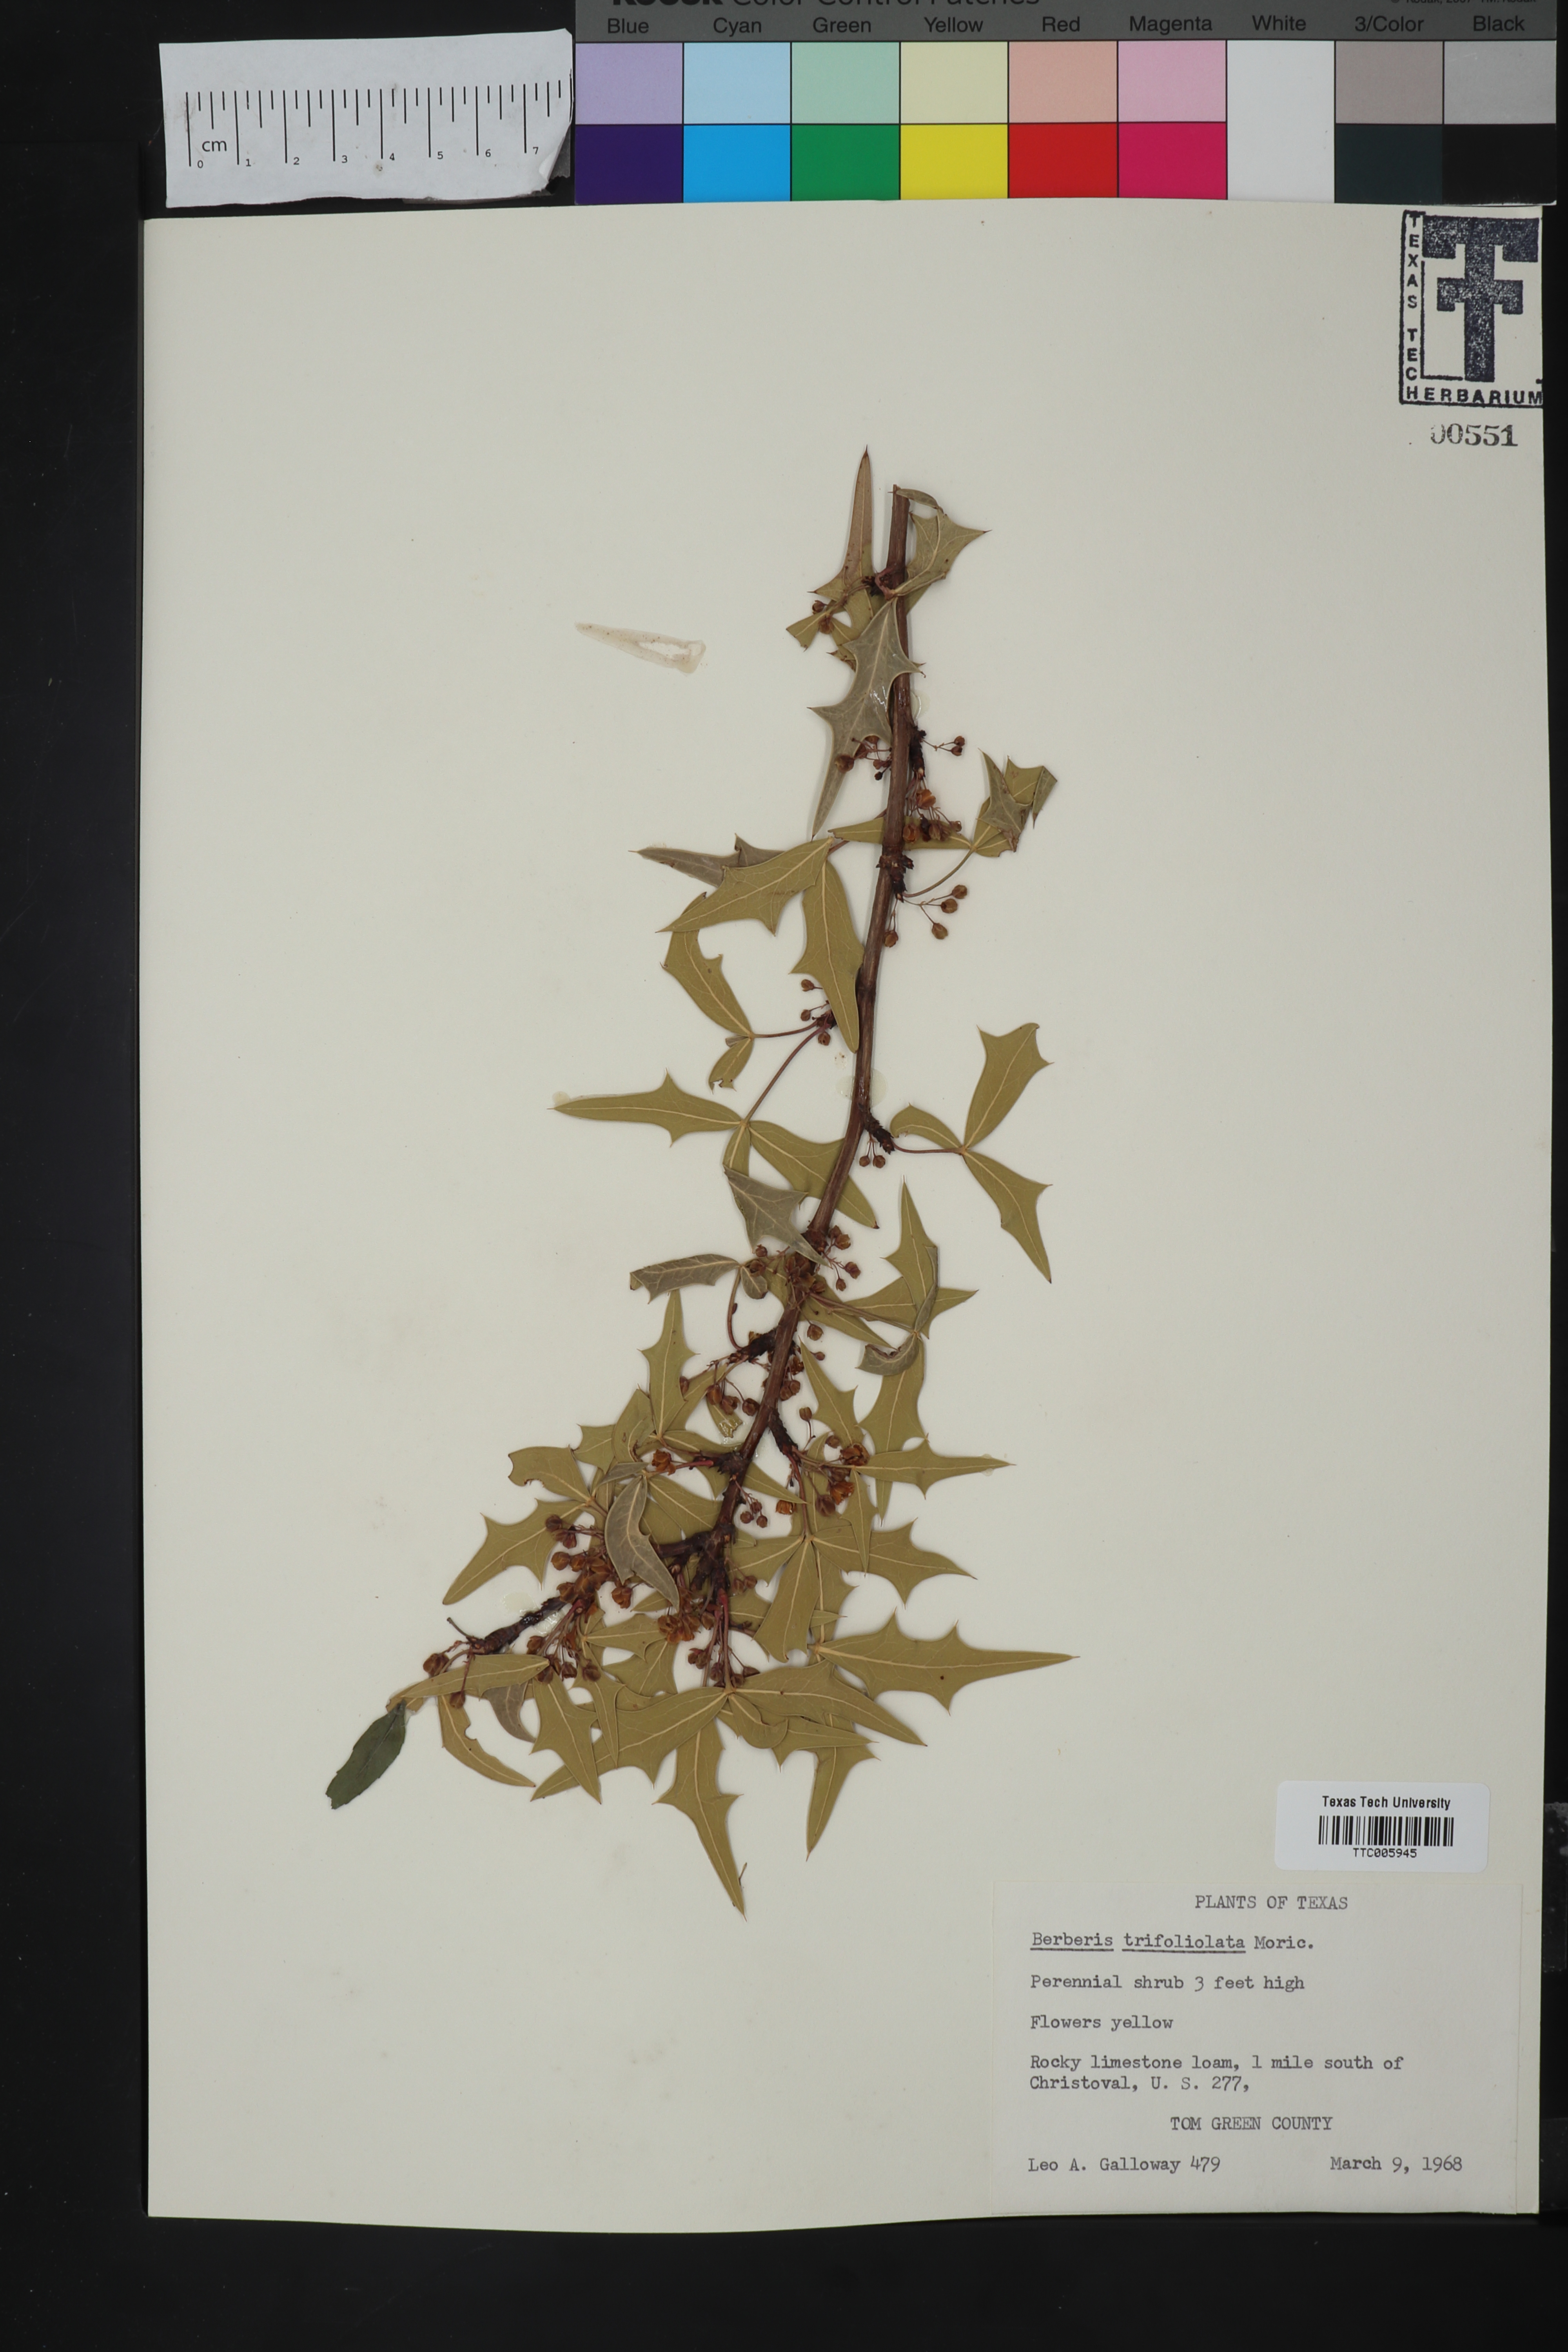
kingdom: Plantae
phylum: Tracheophyta
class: Magnoliopsida
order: Ranunculales
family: Berberidaceae
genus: Alloberberis
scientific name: Alloberberis trifoliolata
